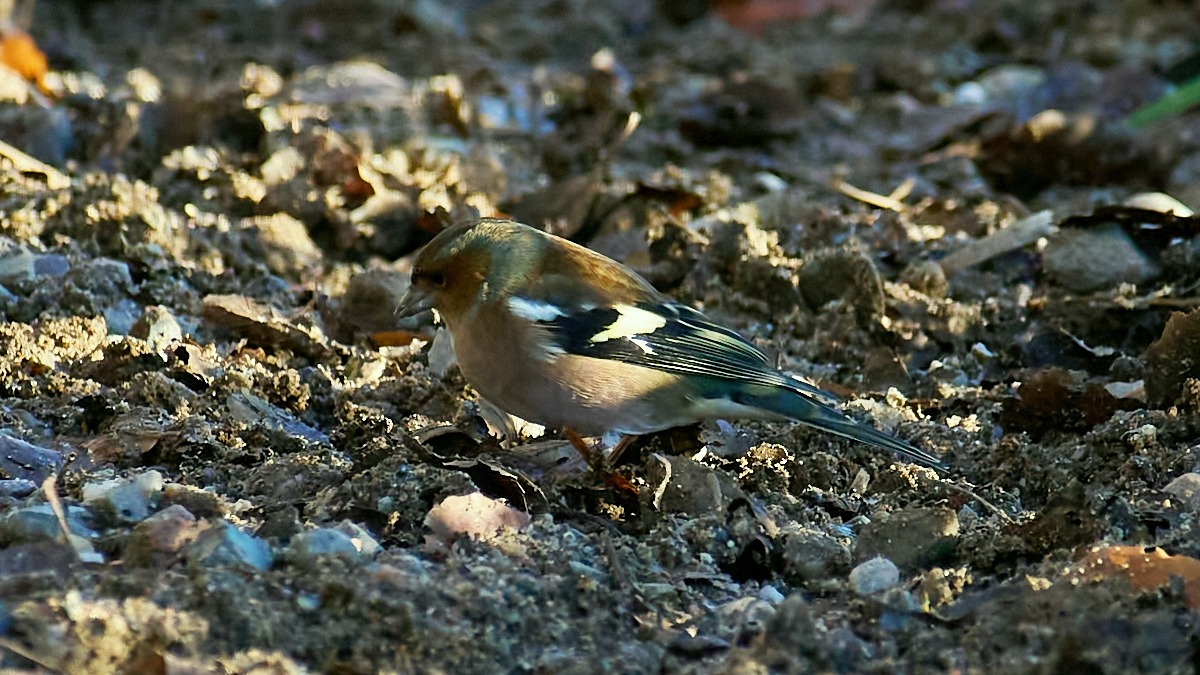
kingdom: Animalia
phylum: Chordata
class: Aves
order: Passeriformes
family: Fringillidae
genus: Fringilla
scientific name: Fringilla coelebs
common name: Bogfinke
